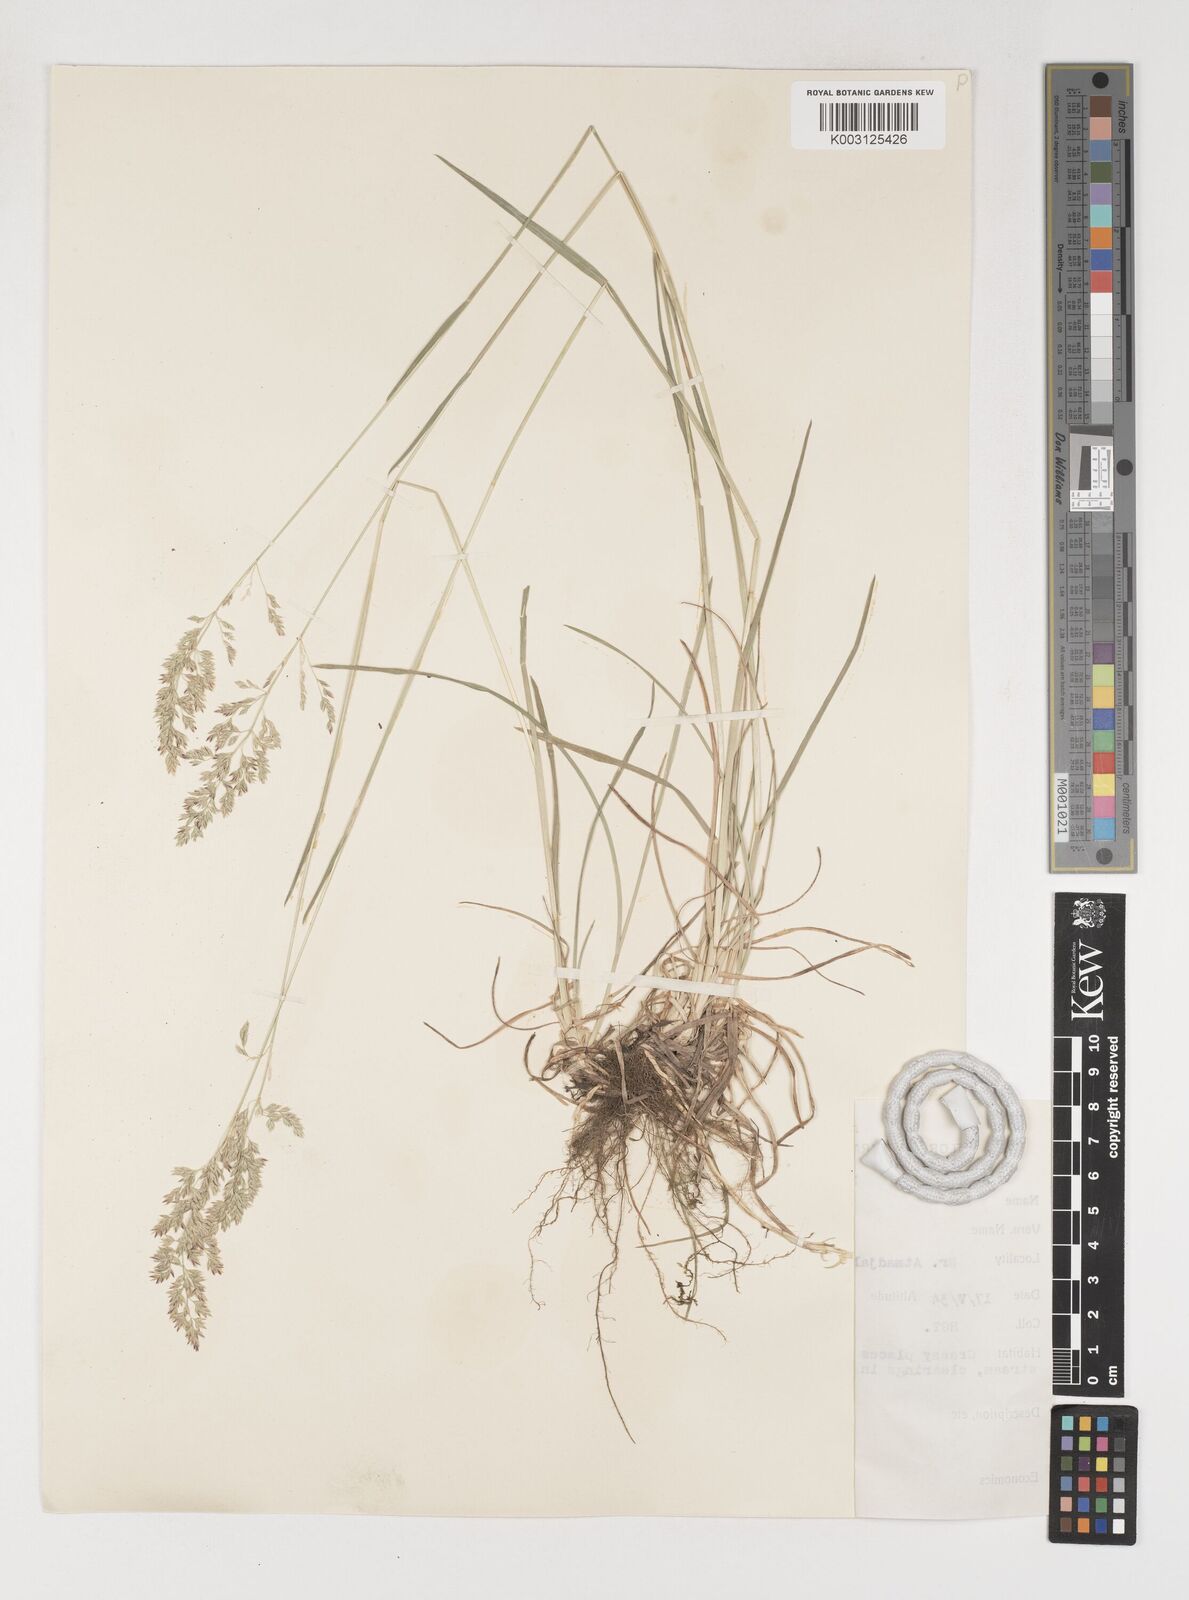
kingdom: Plantae
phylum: Tracheophyta
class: Liliopsida
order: Poales
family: Poaceae
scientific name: Poaceae
